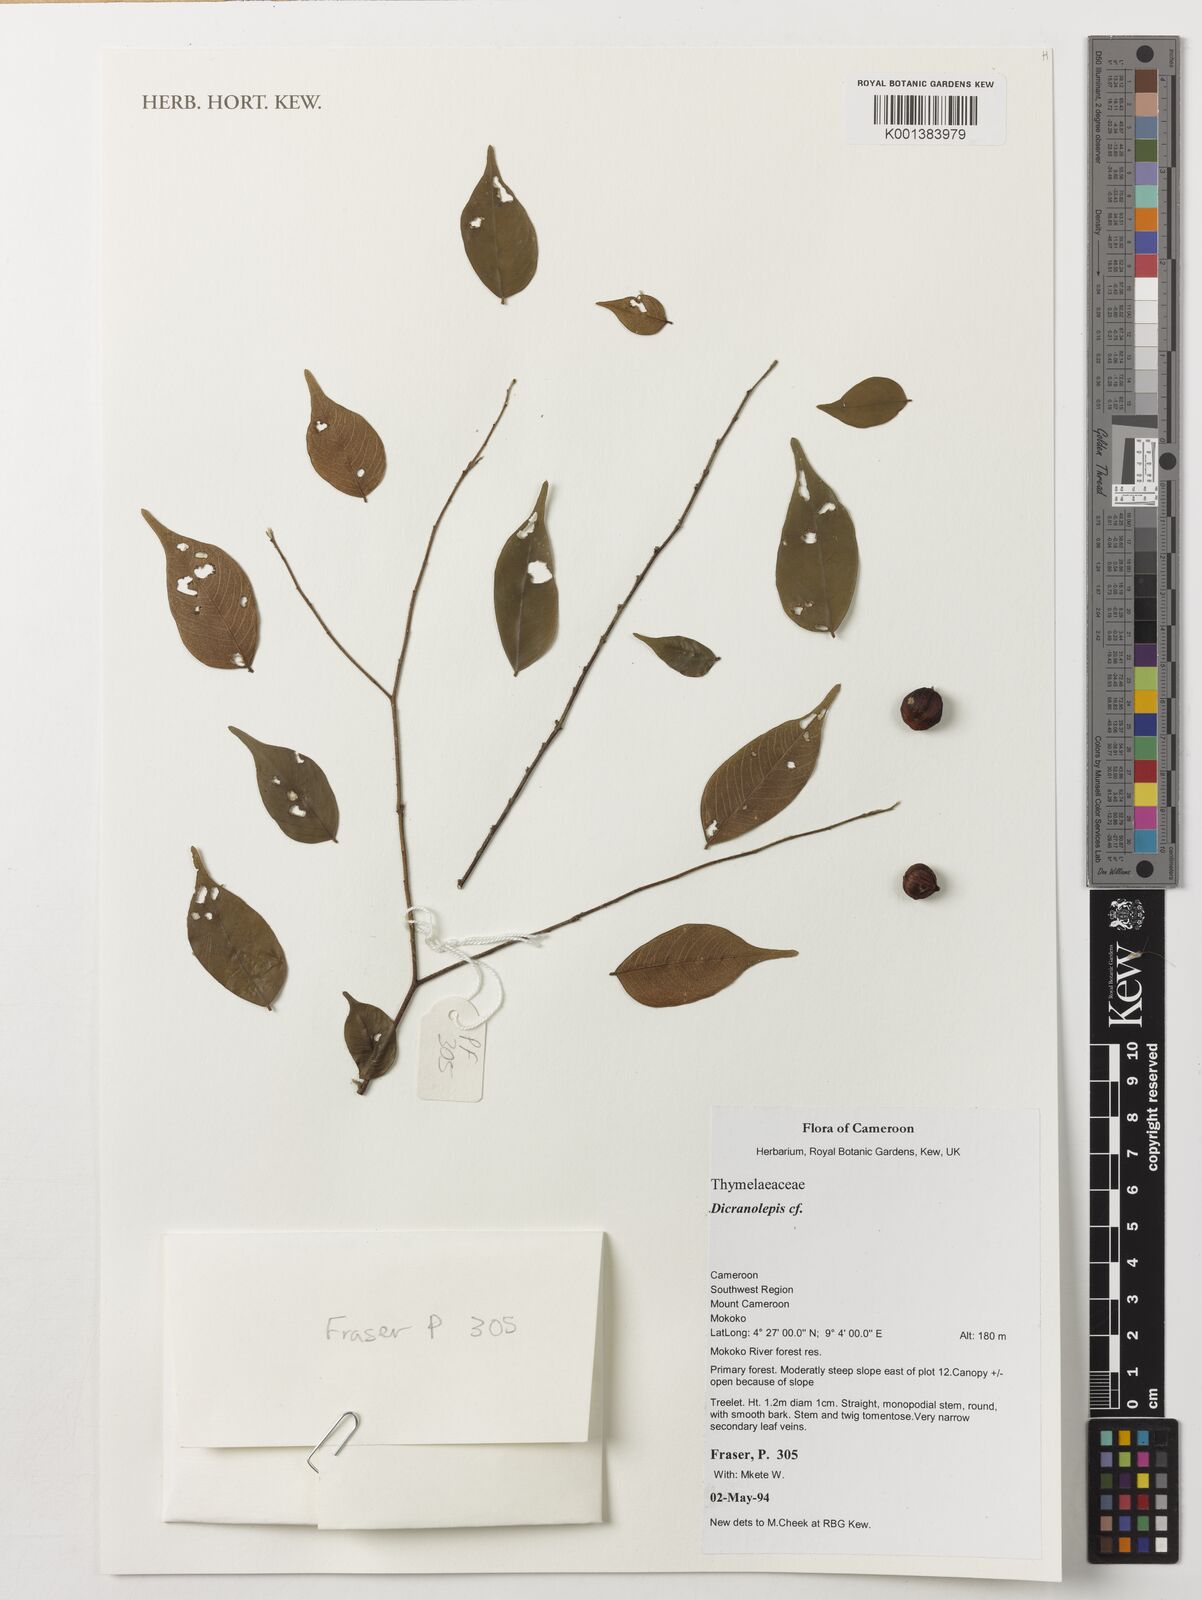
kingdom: Plantae
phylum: Tracheophyta
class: Magnoliopsida
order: Malvales
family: Thymelaeaceae
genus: Dicranolepis
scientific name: Dicranolepis
